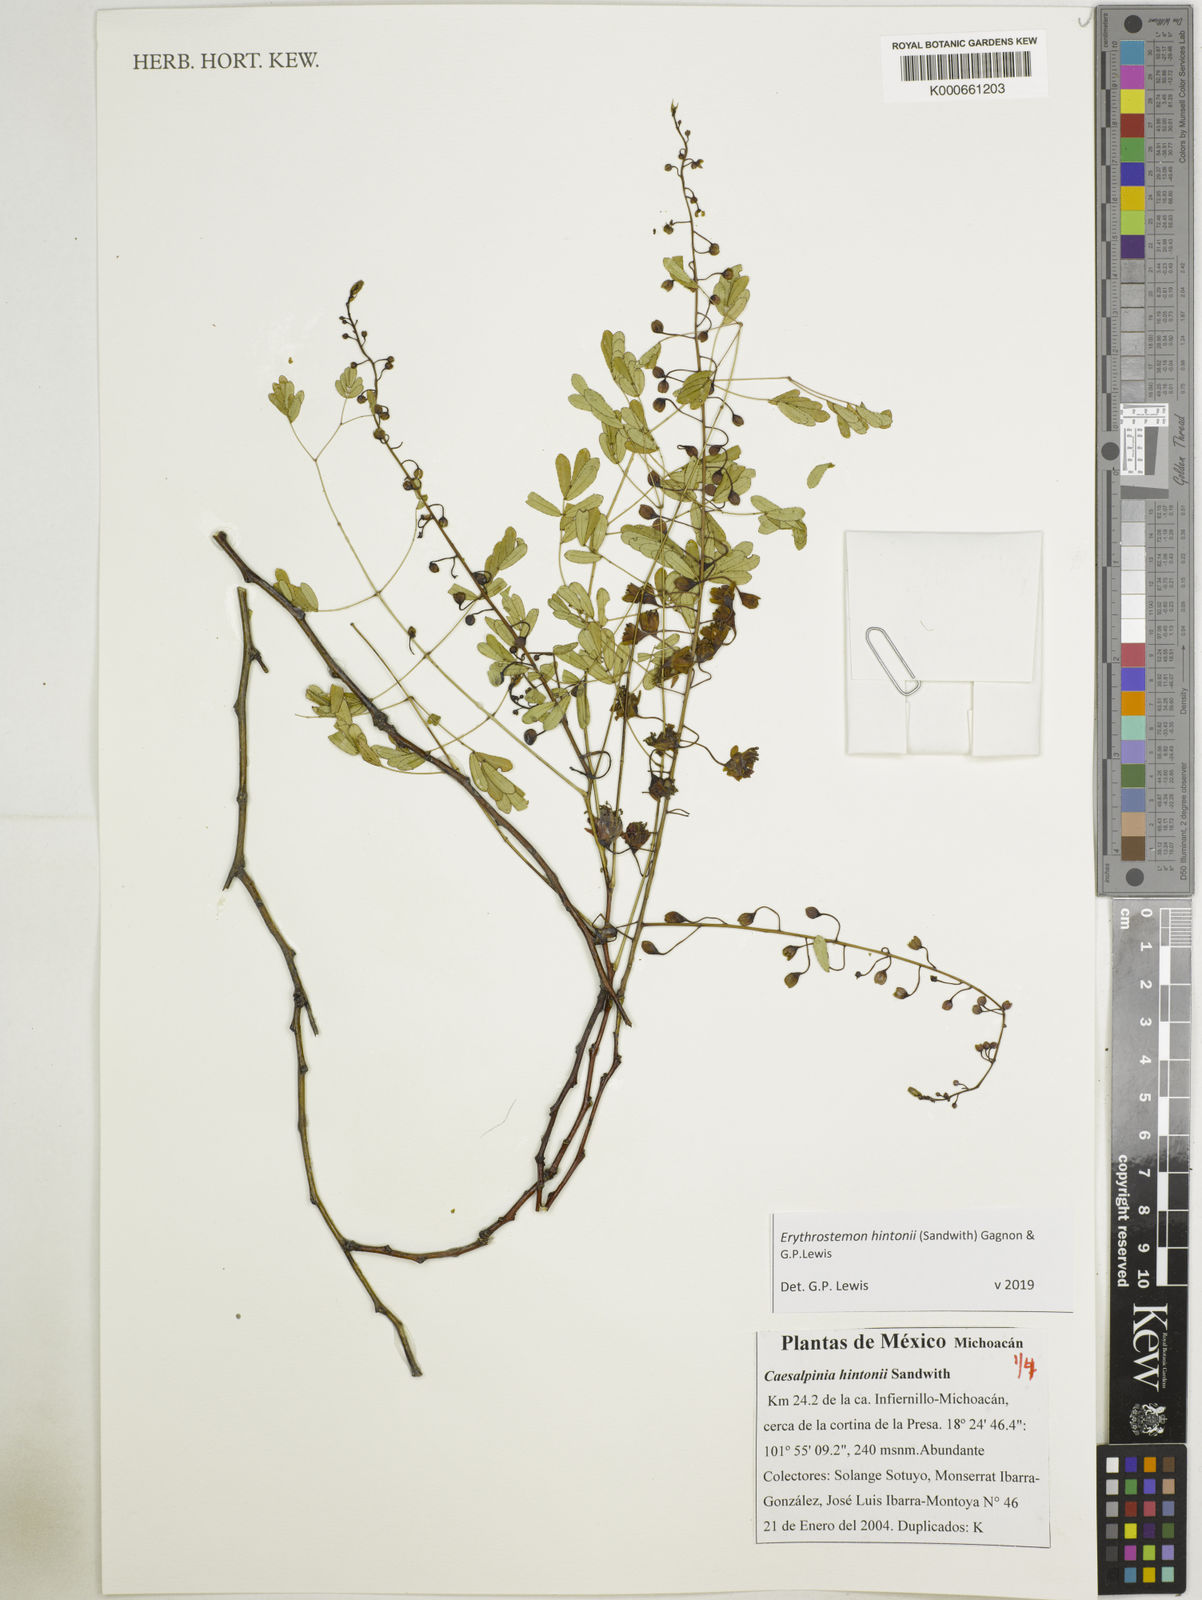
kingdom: Plantae
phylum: Tracheophyta
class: Magnoliopsida
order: Fabales
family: Fabaceae
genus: Erythrostemon
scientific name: Erythrostemon hintonii
